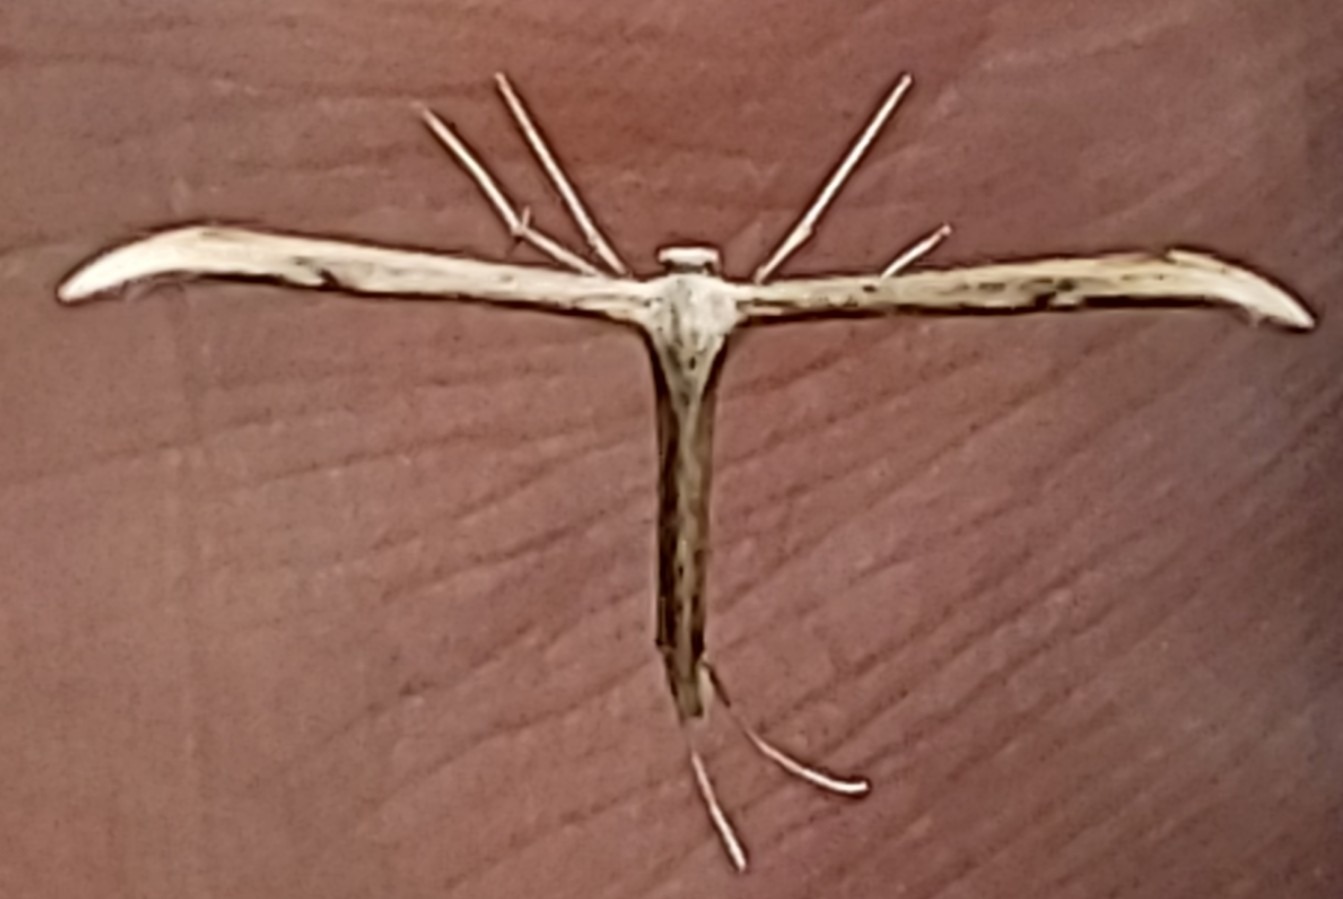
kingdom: Animalia
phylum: Arthropoda
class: Insecta
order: Lepidoptera
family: Pterophoridae
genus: Emmelina
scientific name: Emmelina monodactyla
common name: Snerlefjermøl
